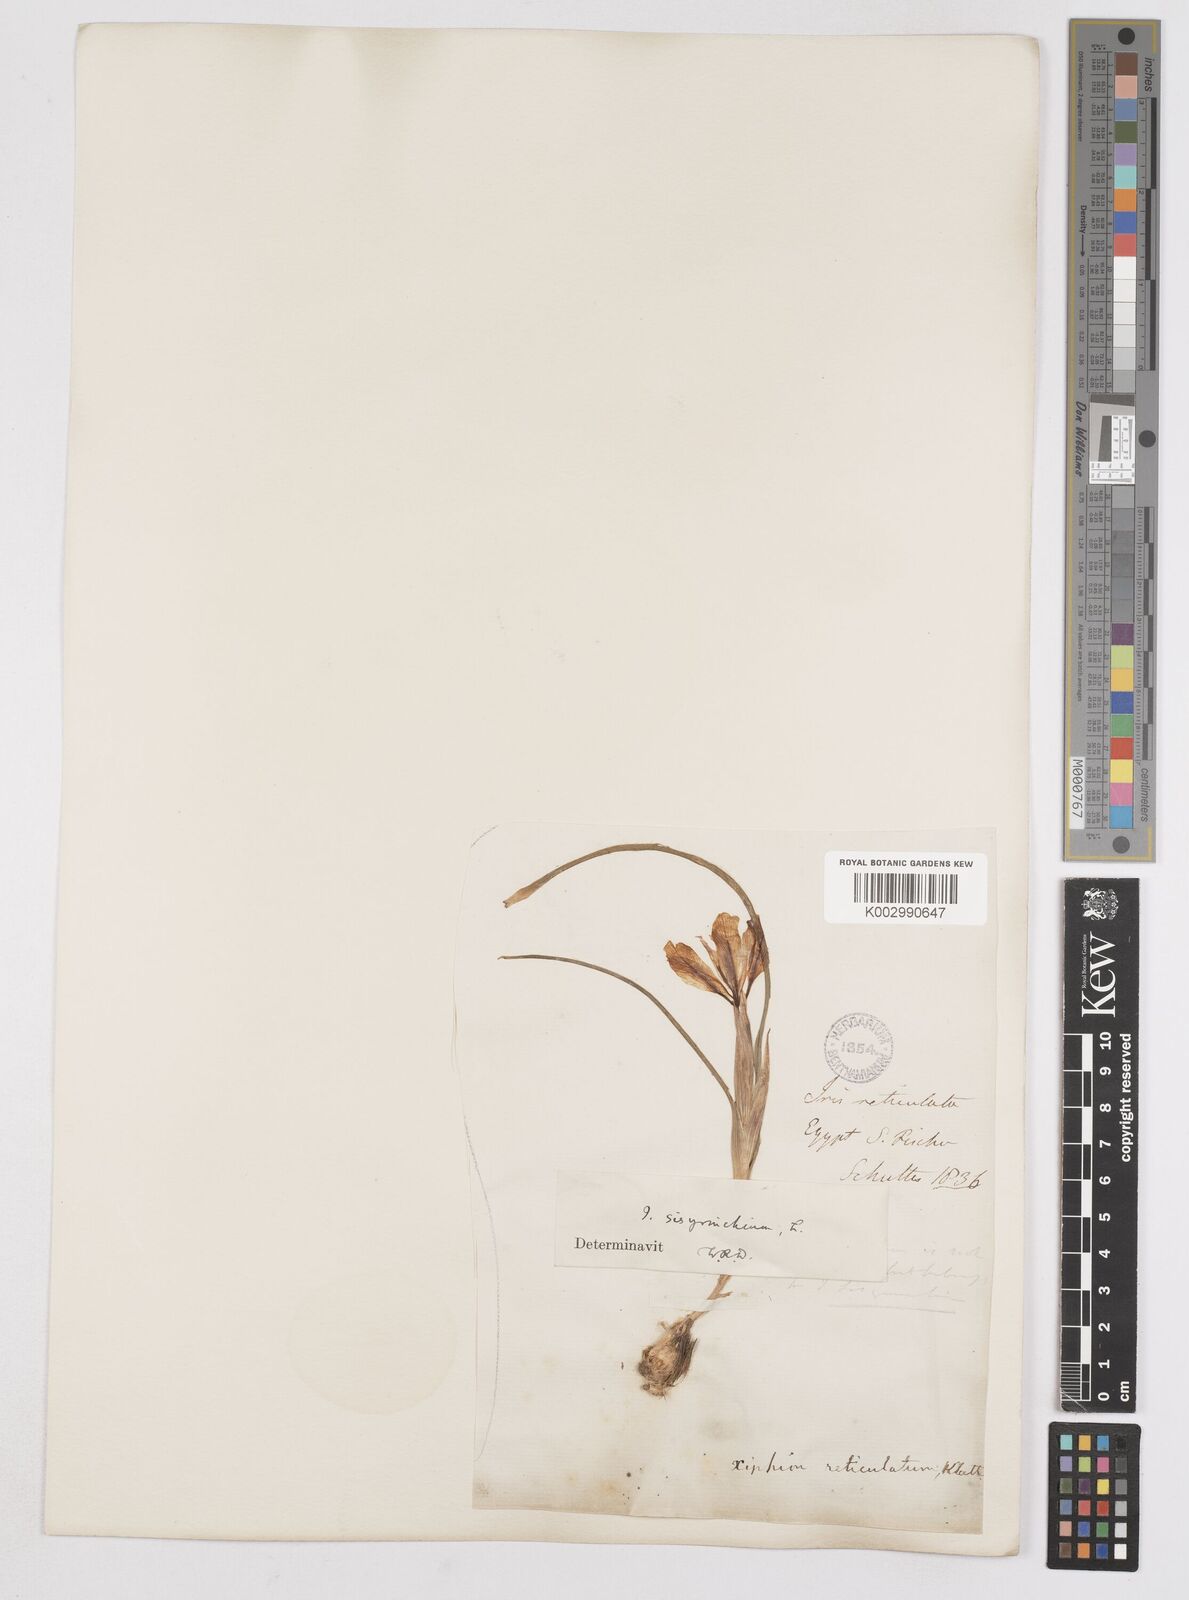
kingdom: Plantae
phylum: Tracheophyta
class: Liliopsida
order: Asparagales
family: Iridaceae
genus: Moraea
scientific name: Moraea sisyrinchium
